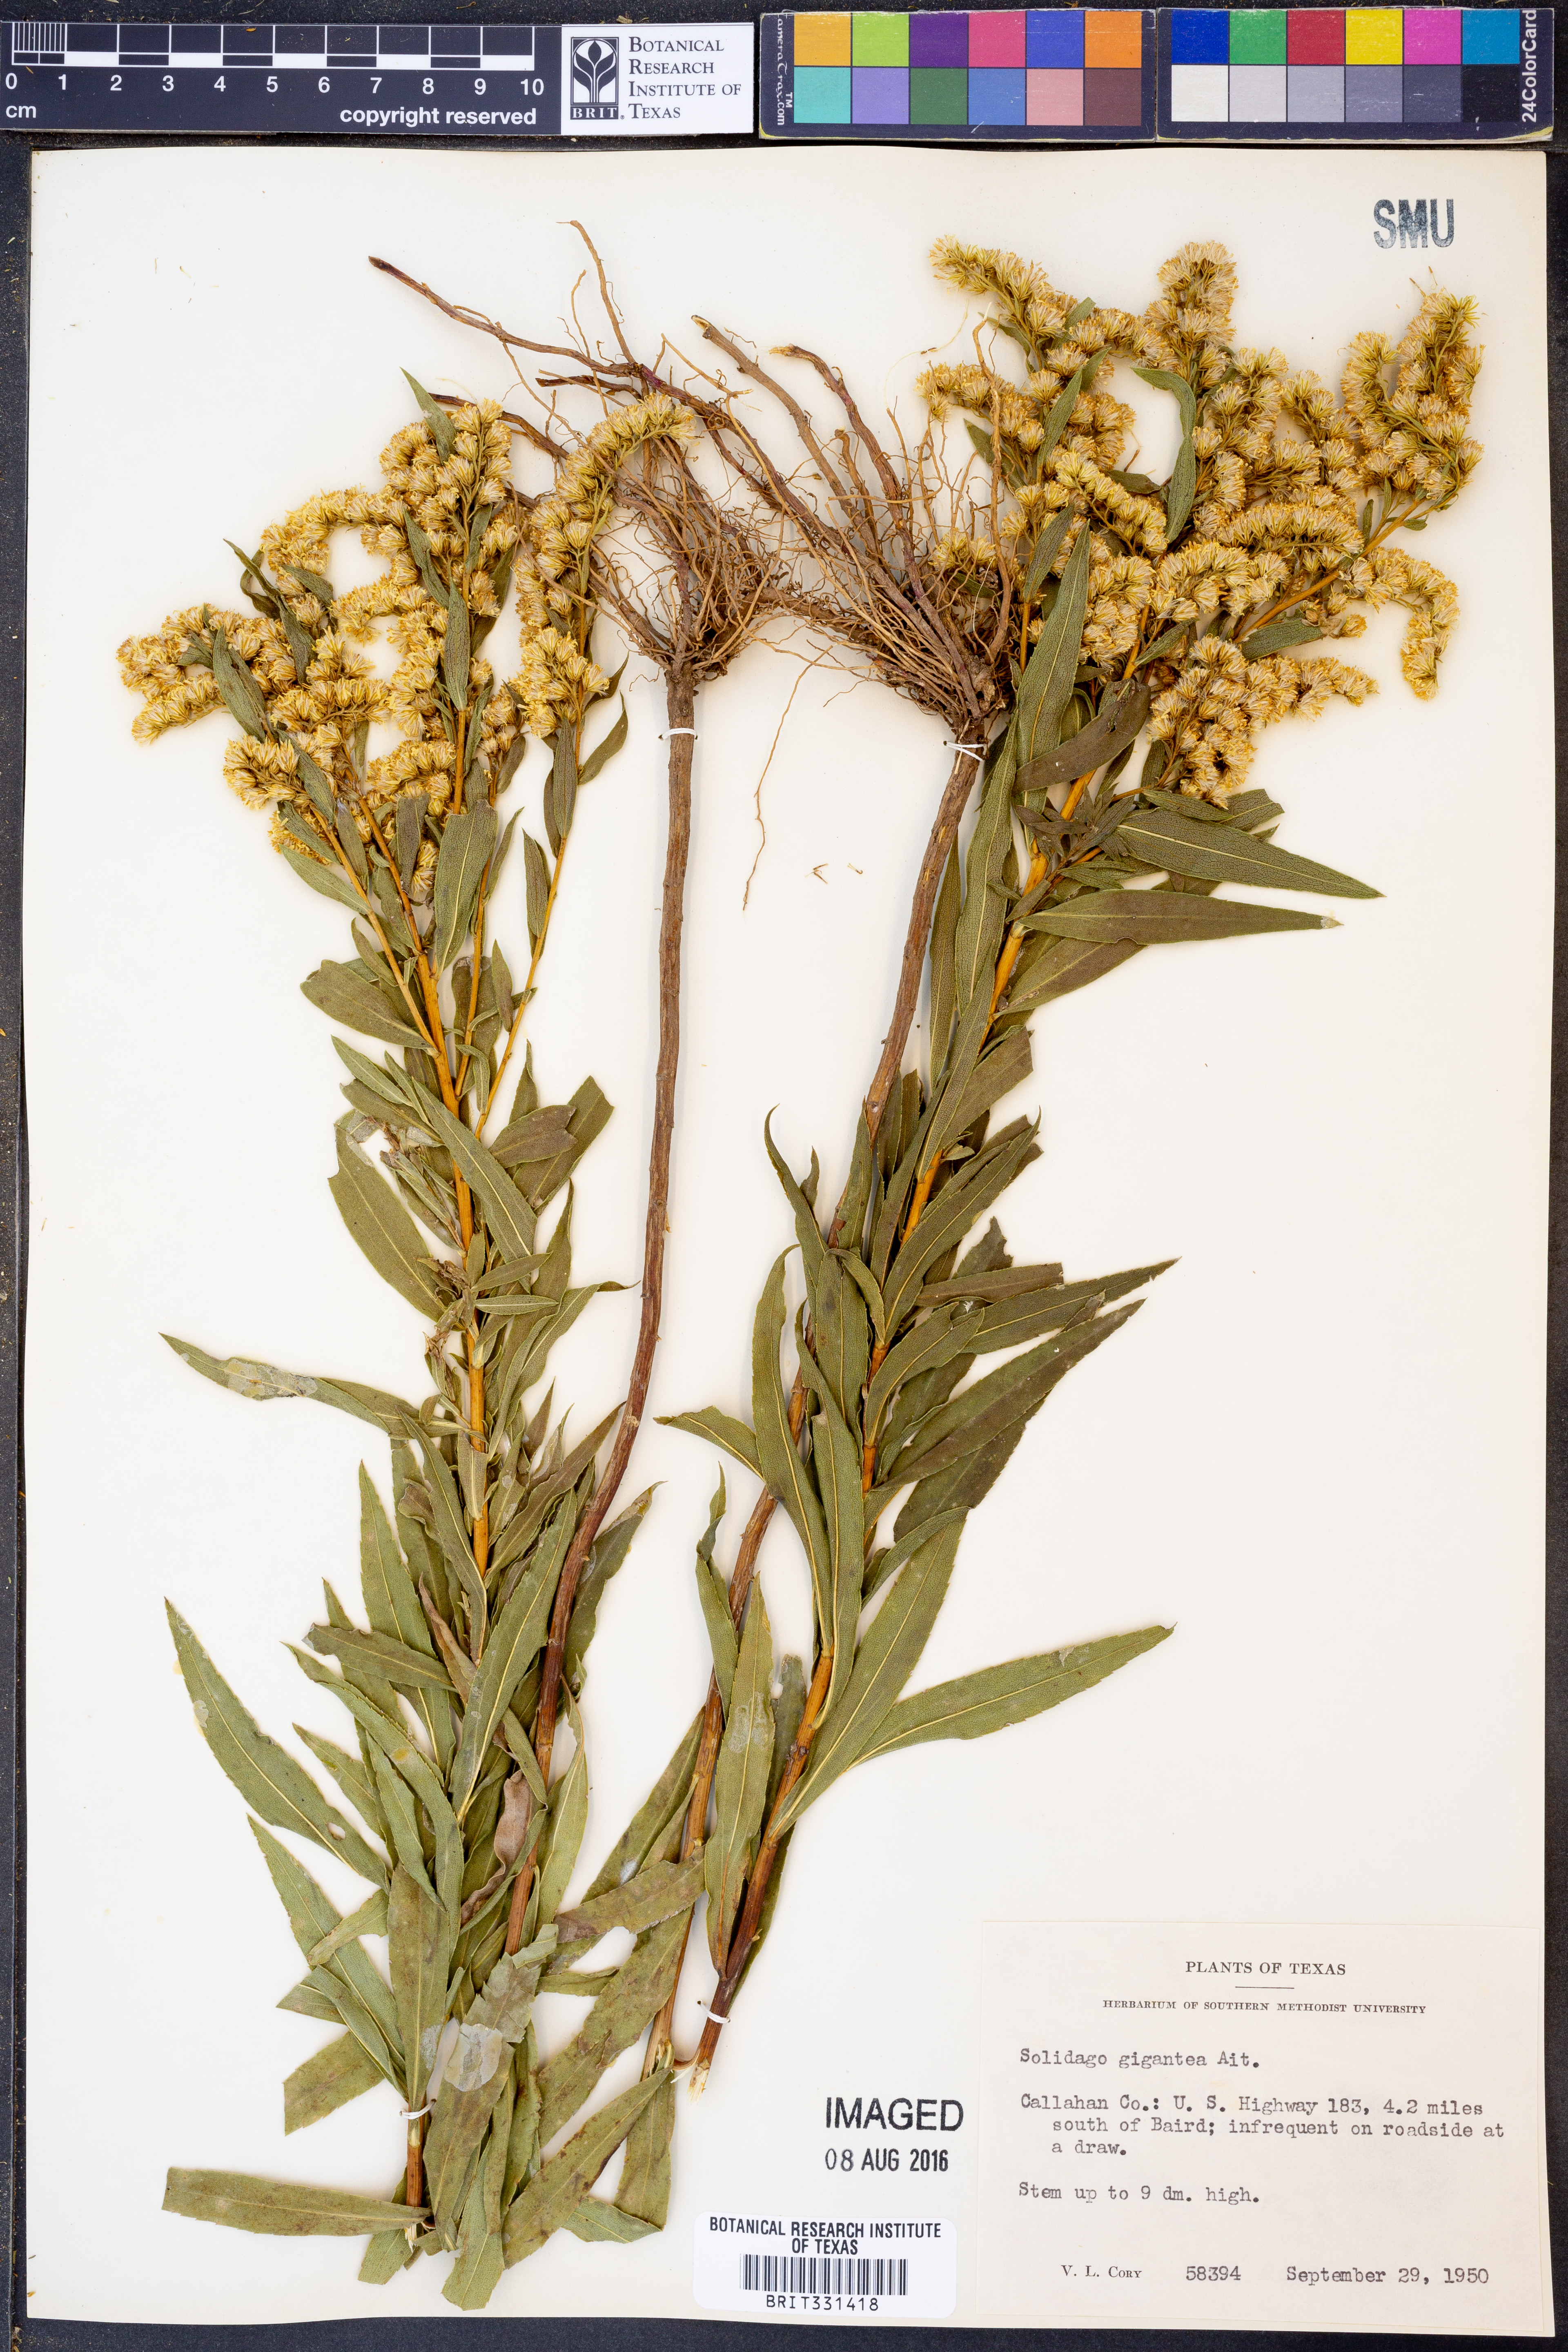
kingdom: Plantae
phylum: Tracheophyta
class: Magnoliopsida
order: Asterales
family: Asteraceae
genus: Solidago
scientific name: Solidago gigantea
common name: Giant goldenrod
